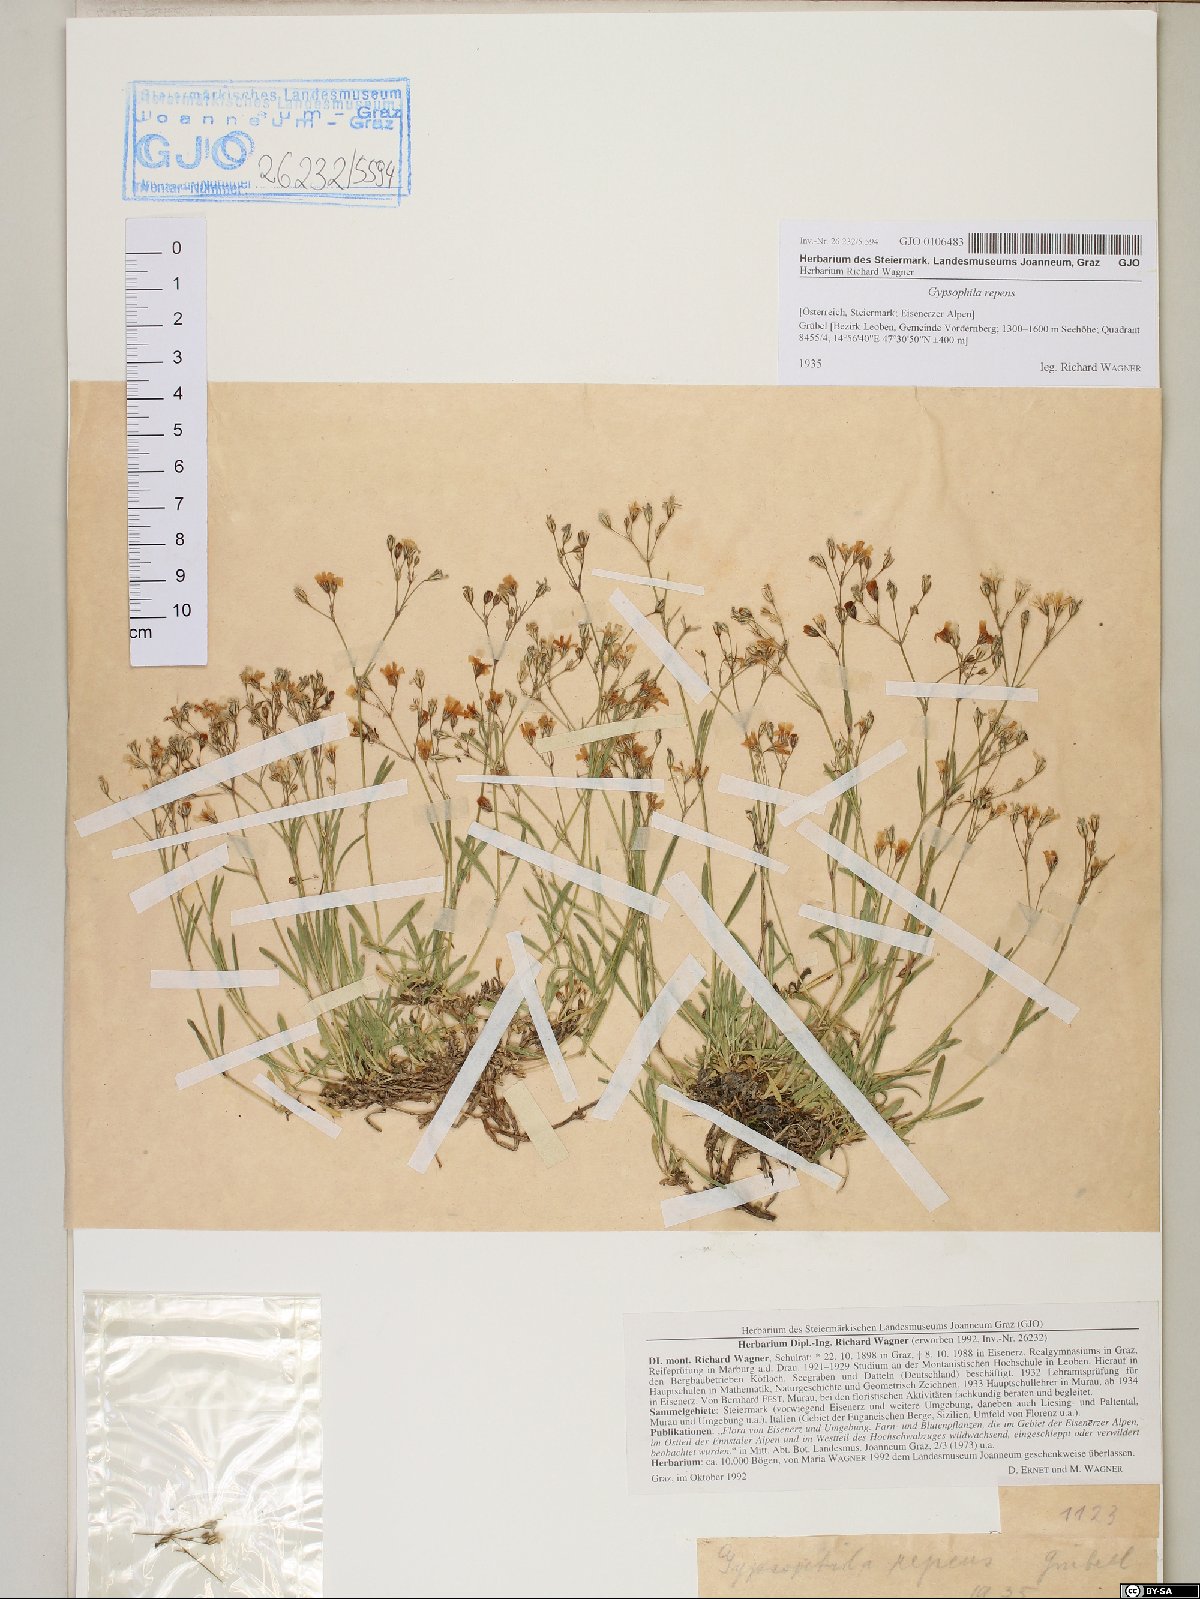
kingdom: Plantae
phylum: Tracheophyta
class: Magnoliopsida
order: Caryophyllales
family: Caryophyllaceae
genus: Gypsophila
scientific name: Gypsophila repens
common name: Creeping baby's-breath
